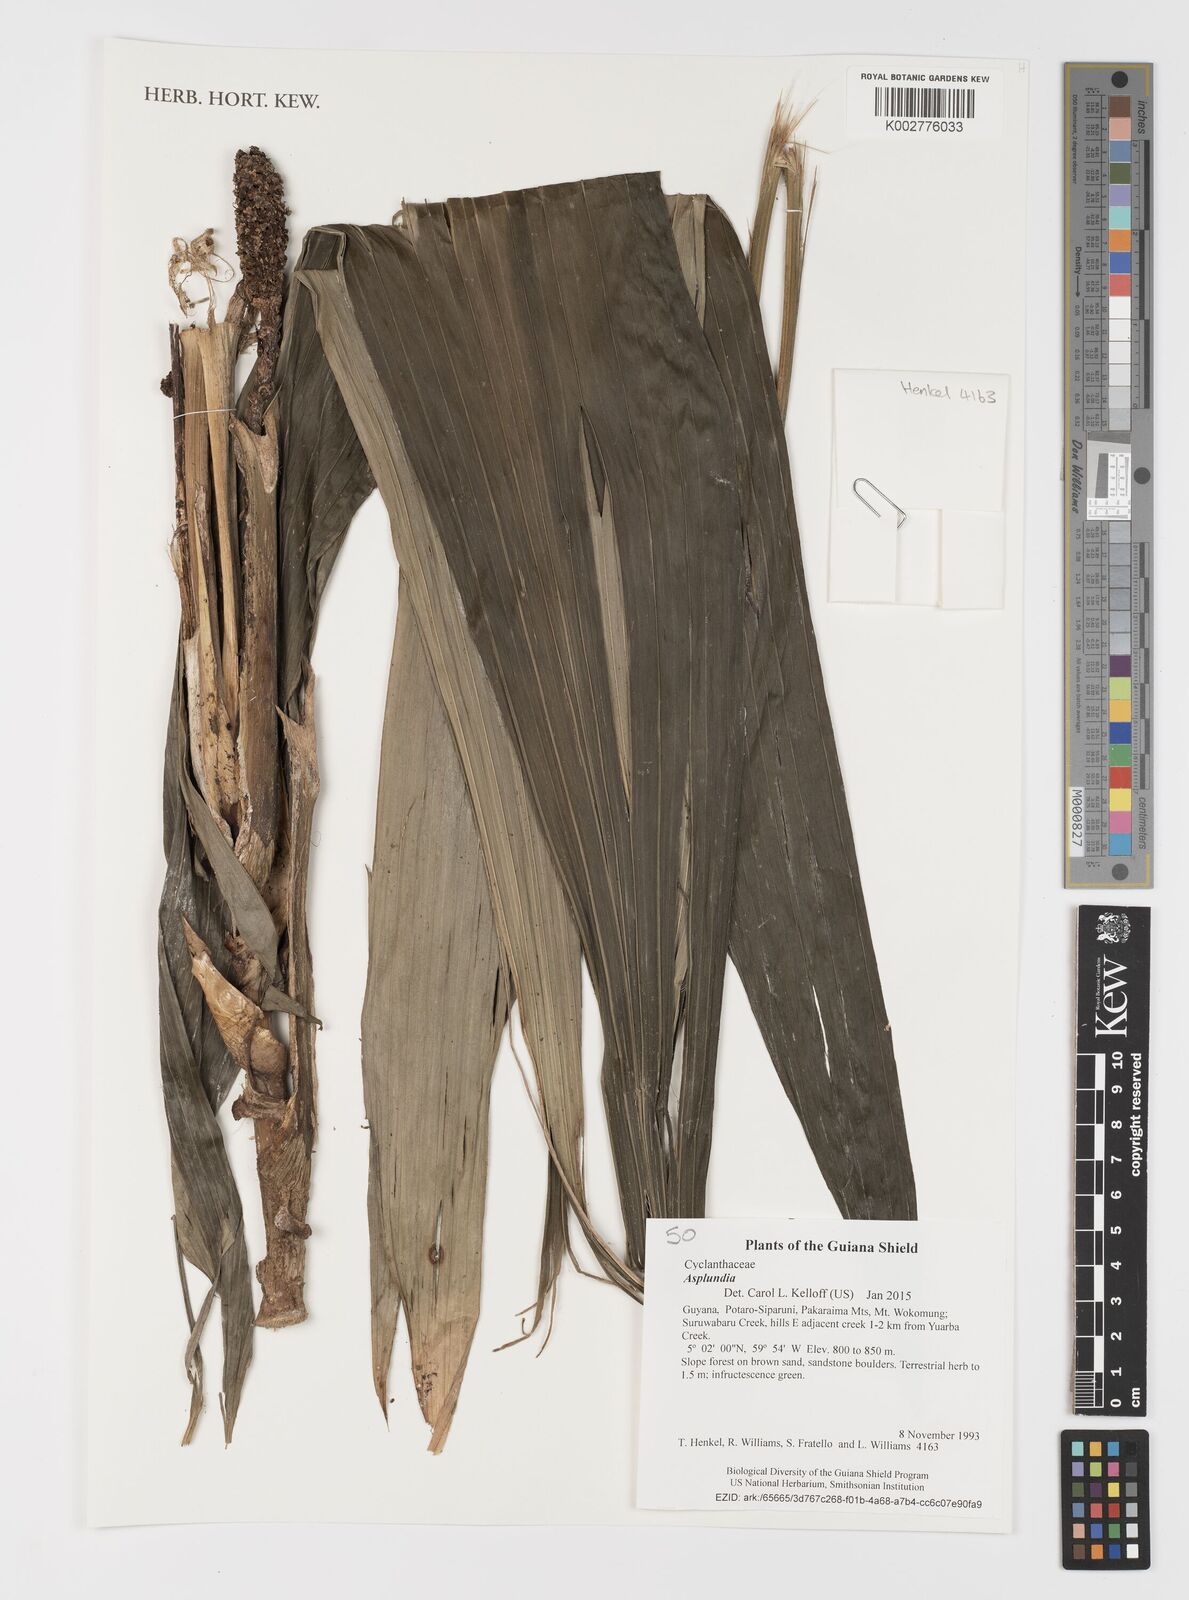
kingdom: Plantae
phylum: Tracheophyta
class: Liliopsida
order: Pandanales
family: Cyclanthaceae
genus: Asplundia
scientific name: Asplundia
